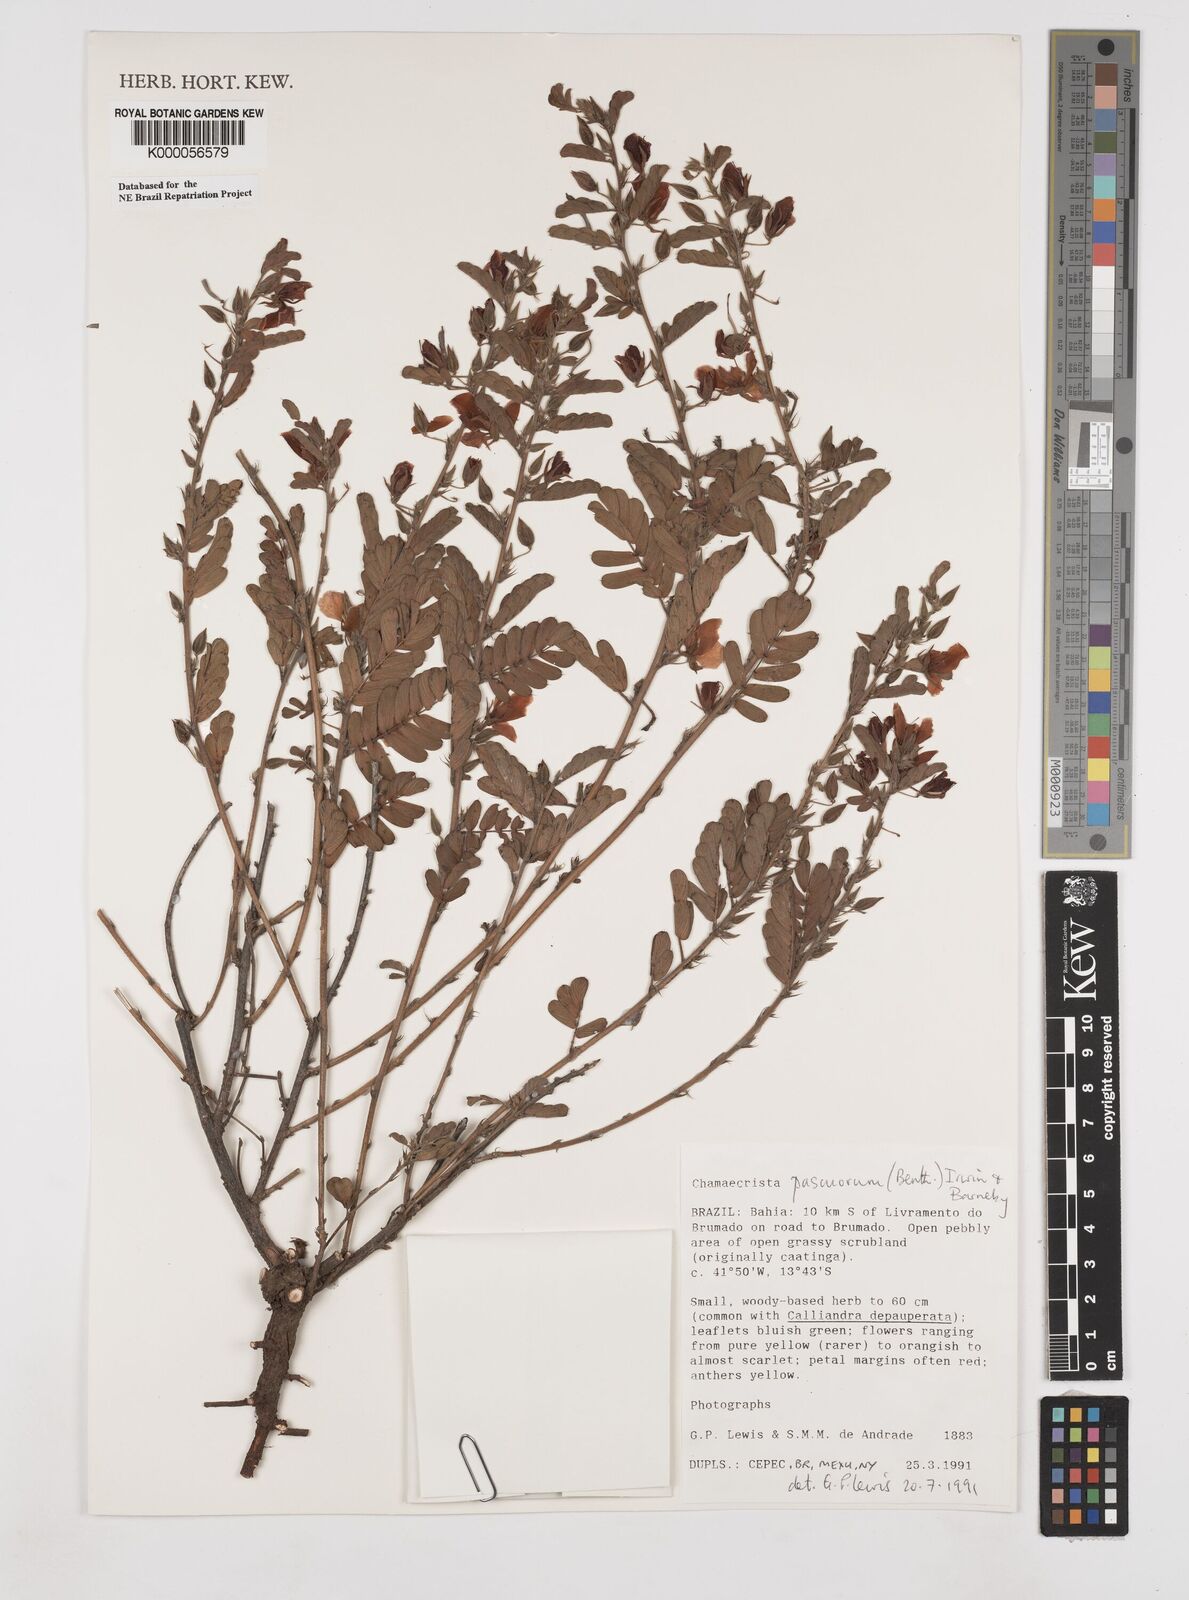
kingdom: Plantae
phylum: Tracheophyta
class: Magnoliopsida
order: Fabales
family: Fabaceae
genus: Chamaecrista
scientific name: Chamaecrista pascuorum
